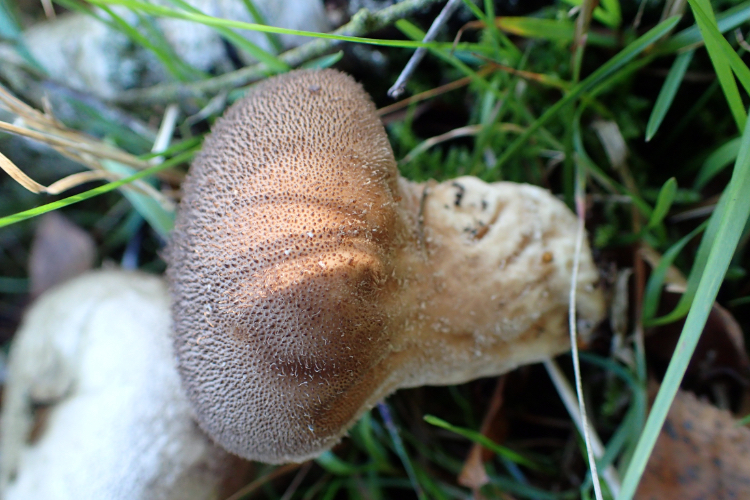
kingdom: Fungi
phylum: Basidiomycota
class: Agaricomycetes
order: Agaricales
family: Lycoperdaceae
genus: Lycoperdon
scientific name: Lycoperdon nigrescens
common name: sortagtig støvbold
